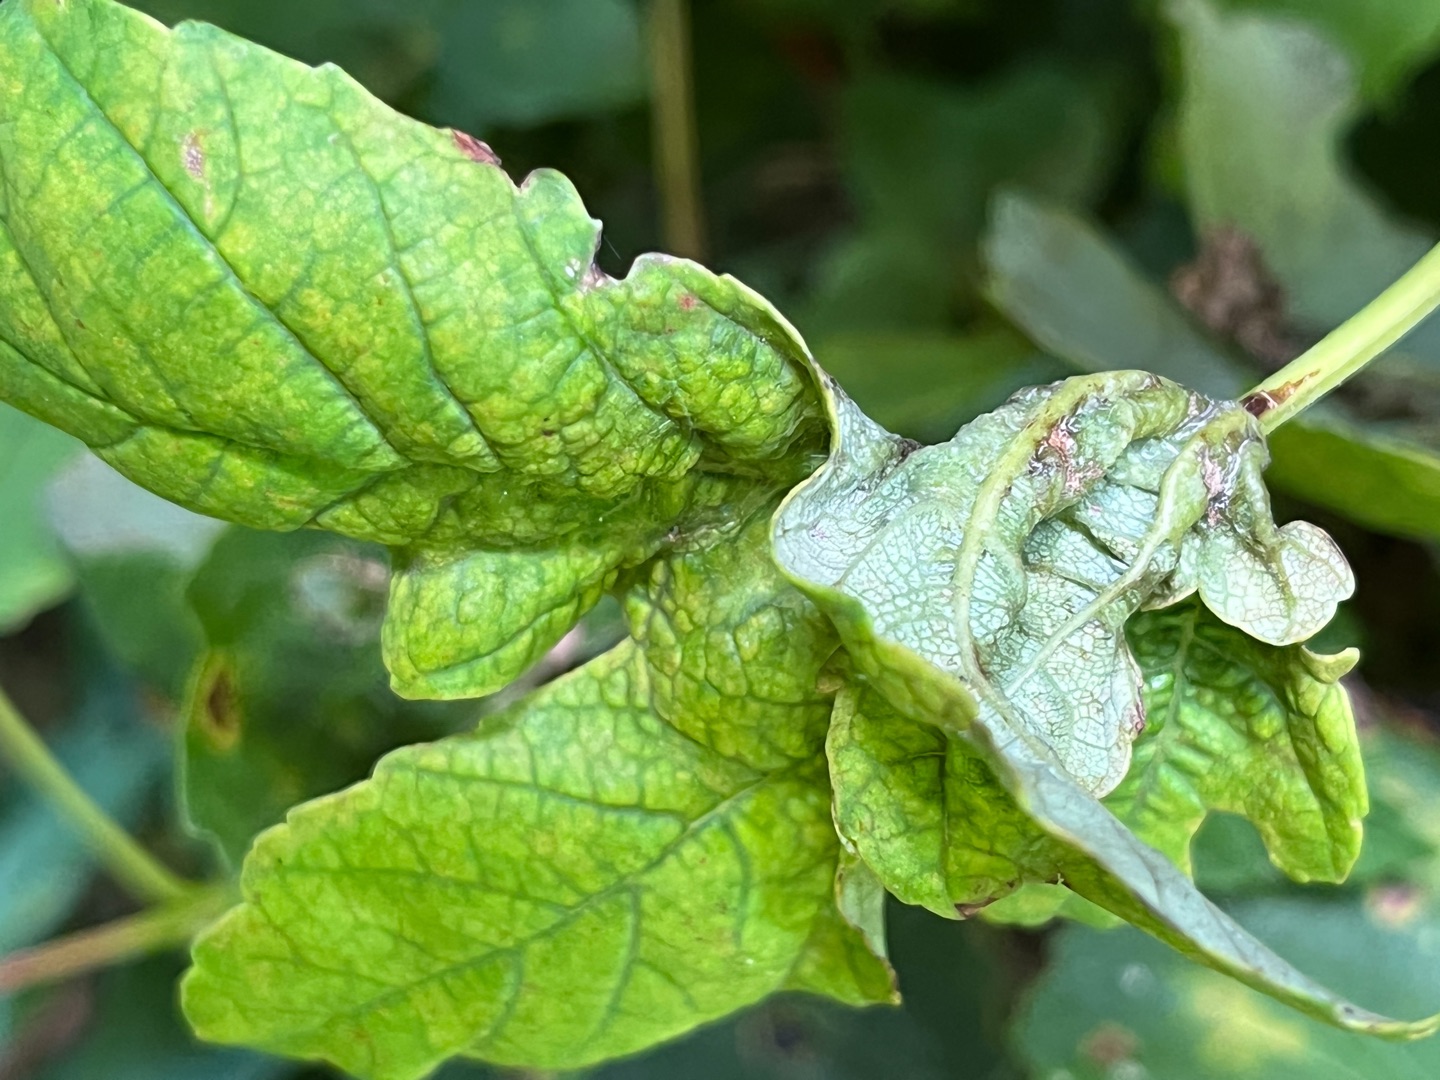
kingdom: Animalia
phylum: Arthropoda
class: Insecta
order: Diptera
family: Cecidomyiidae
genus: Dasineura
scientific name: Dasineura irregularis
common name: Ahornkrusegalmyg
